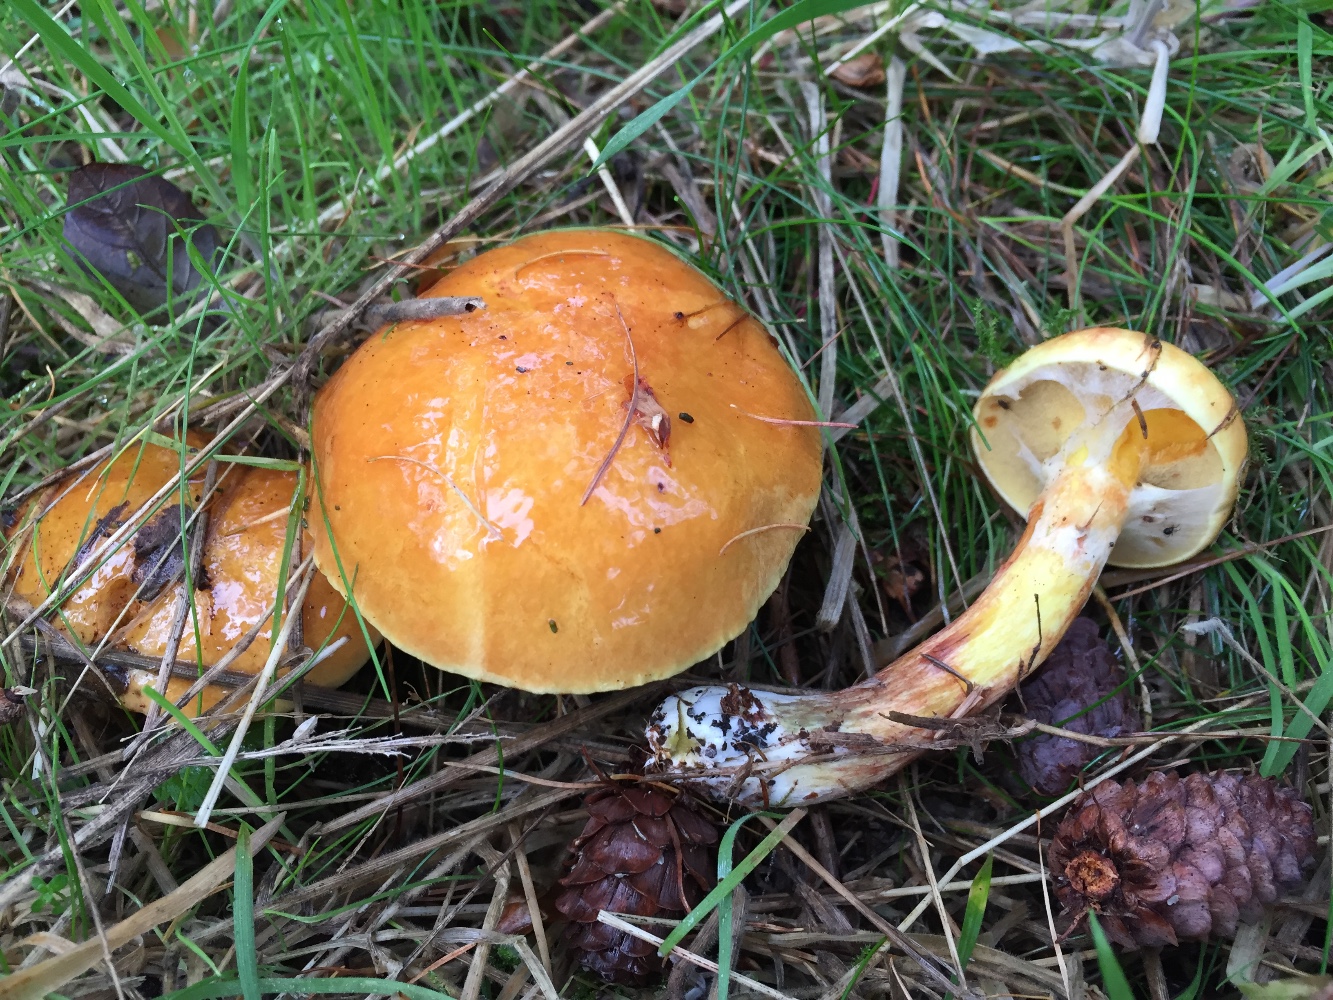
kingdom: Fungi
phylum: Basidiomycota
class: Agaricomycetes
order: Boletales
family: Suillaceae
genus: Suillus
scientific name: Suillus grevillei
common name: lærke-slimrørhat
